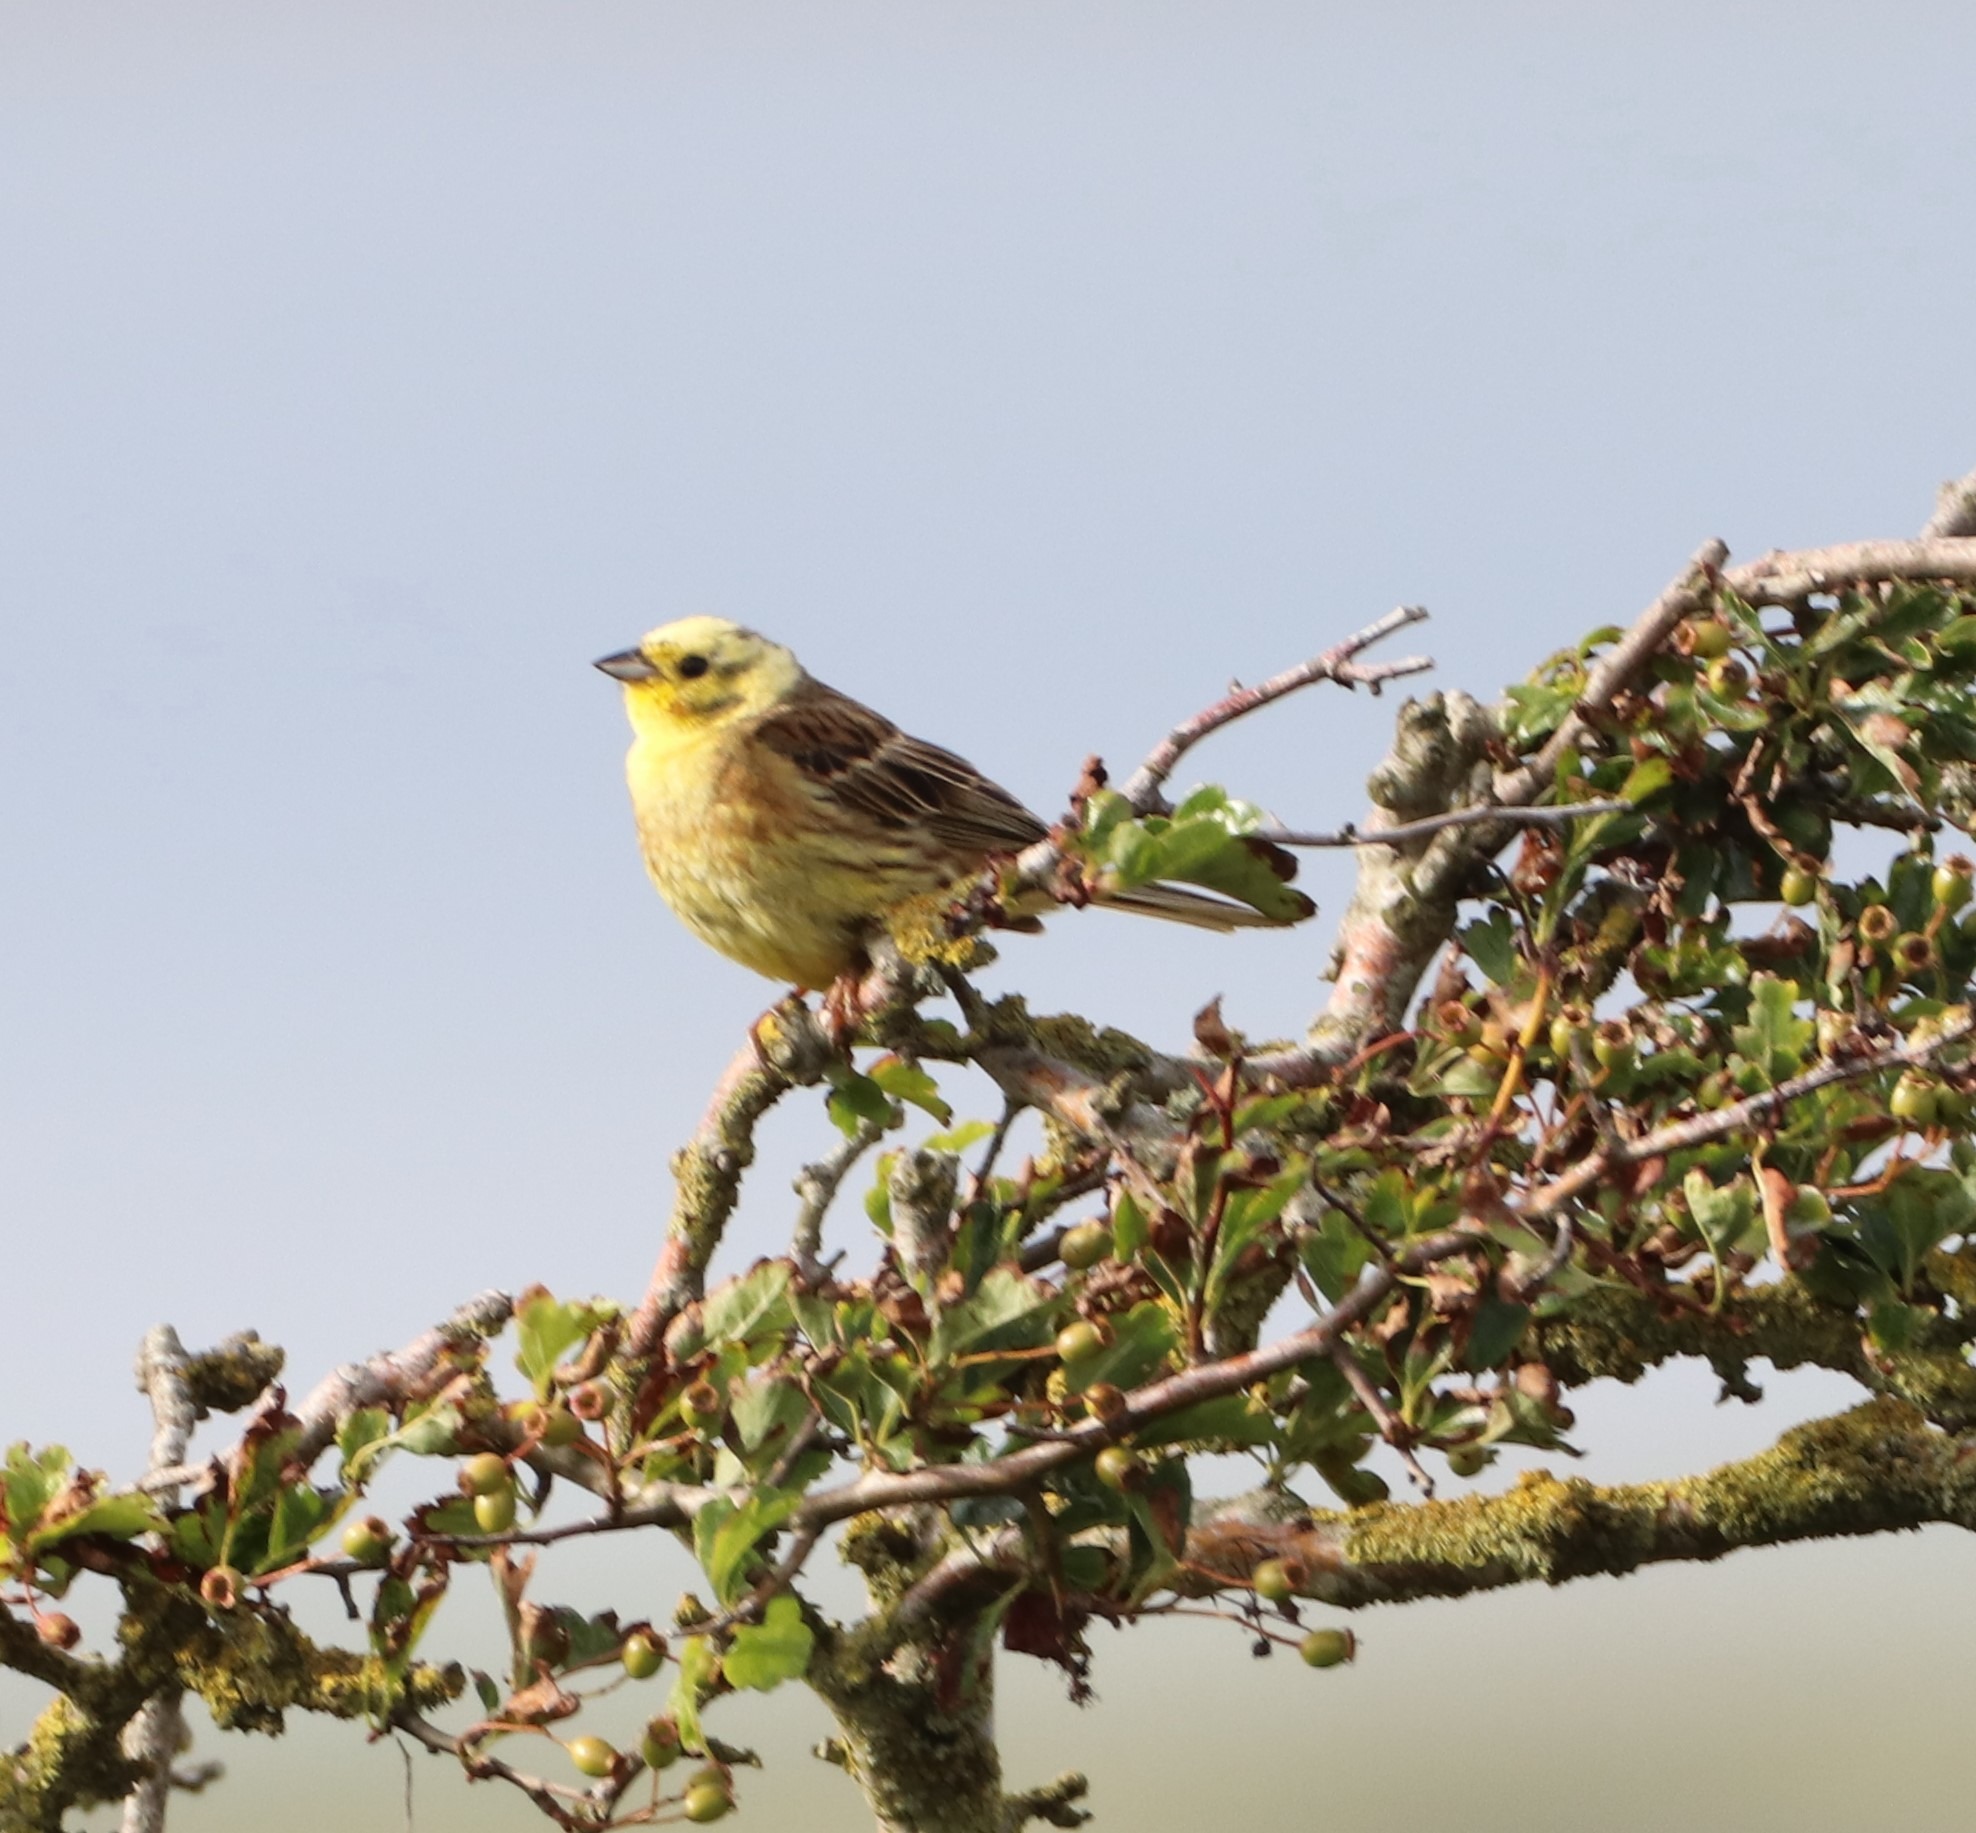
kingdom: Animalia
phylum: Chordata
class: Aves
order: Passeriformes
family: Emberizidae
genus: Emberiza
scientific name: Emberiza citrinella
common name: Gulspurv
